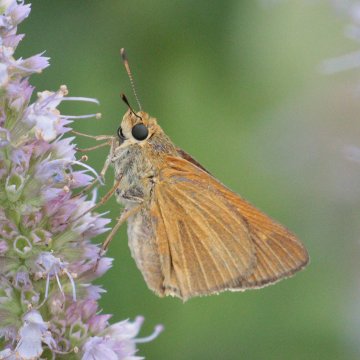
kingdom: Animalia
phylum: Arthropoda
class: Insecta
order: Lepidoptera
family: Hesperiidae
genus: Euphyes
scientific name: Euphyes dion
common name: Dion Skipper
